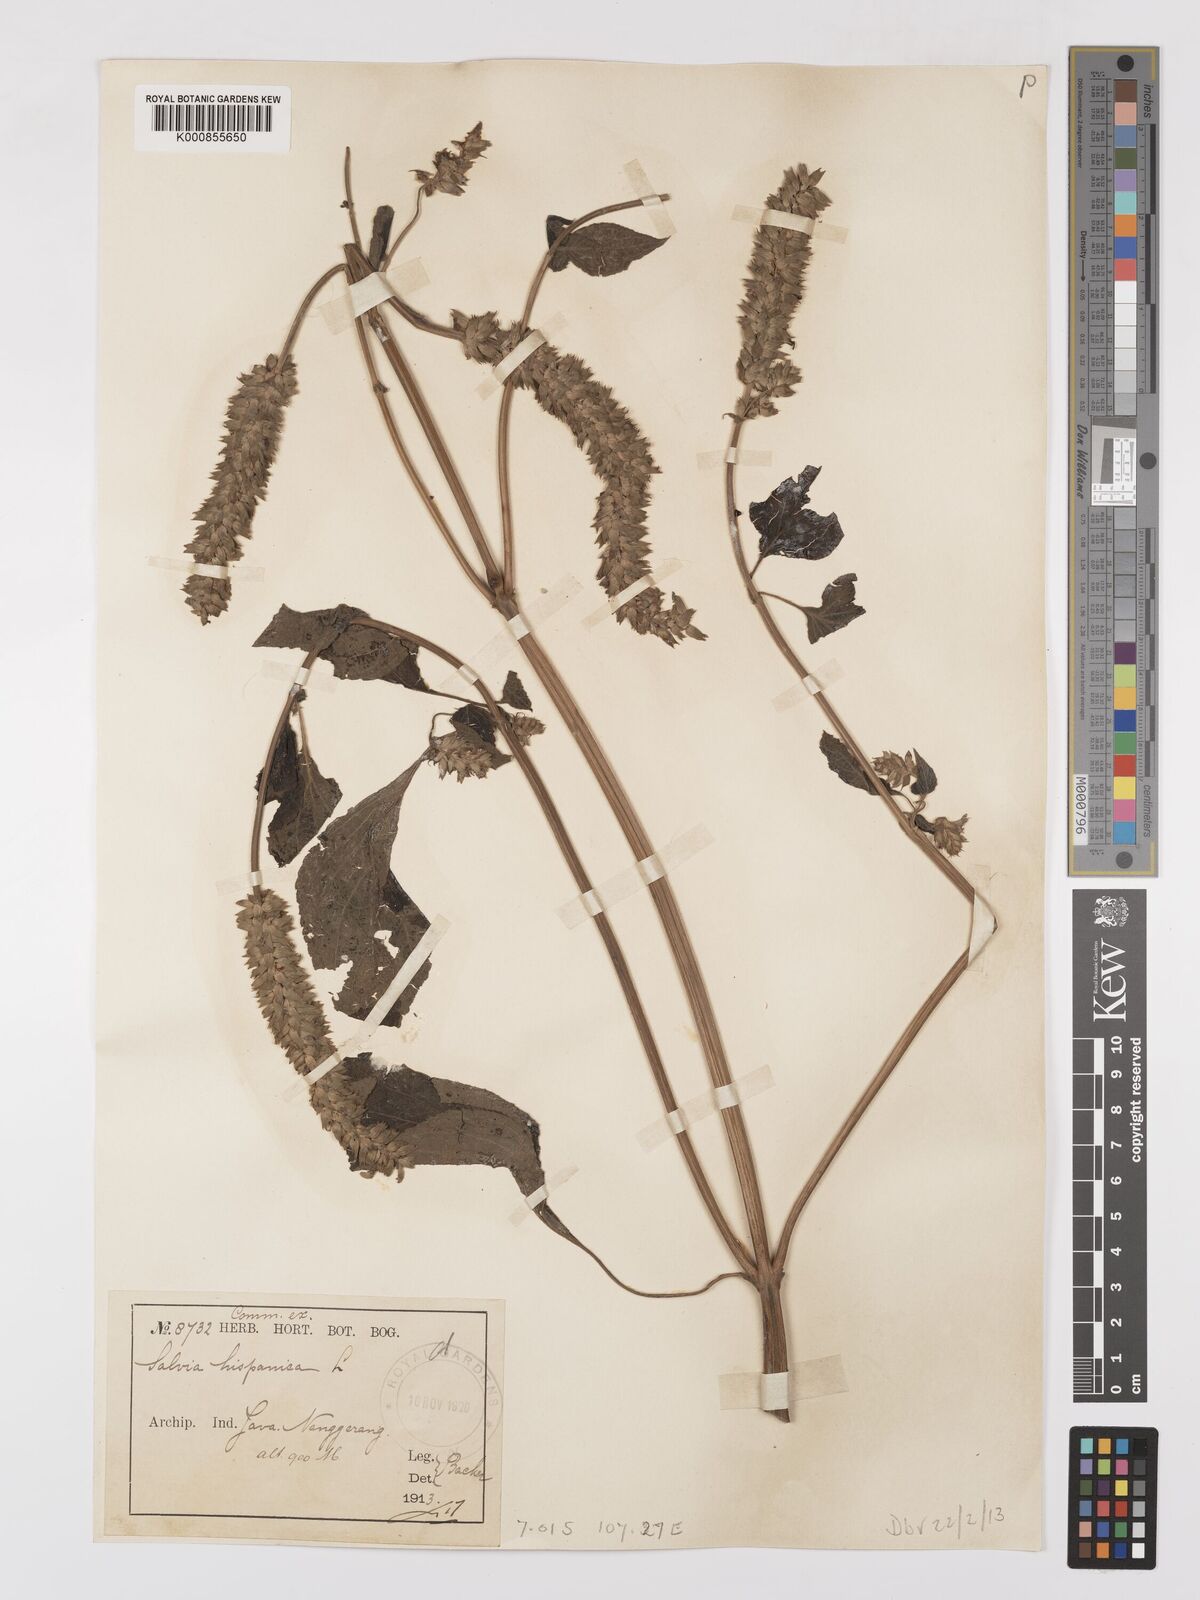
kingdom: Plantae
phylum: Tracheophyta
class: Magnoliopsida
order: Lamiales
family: Lamiaceae
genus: Salvia
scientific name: Salvia hispanica
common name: Chia
